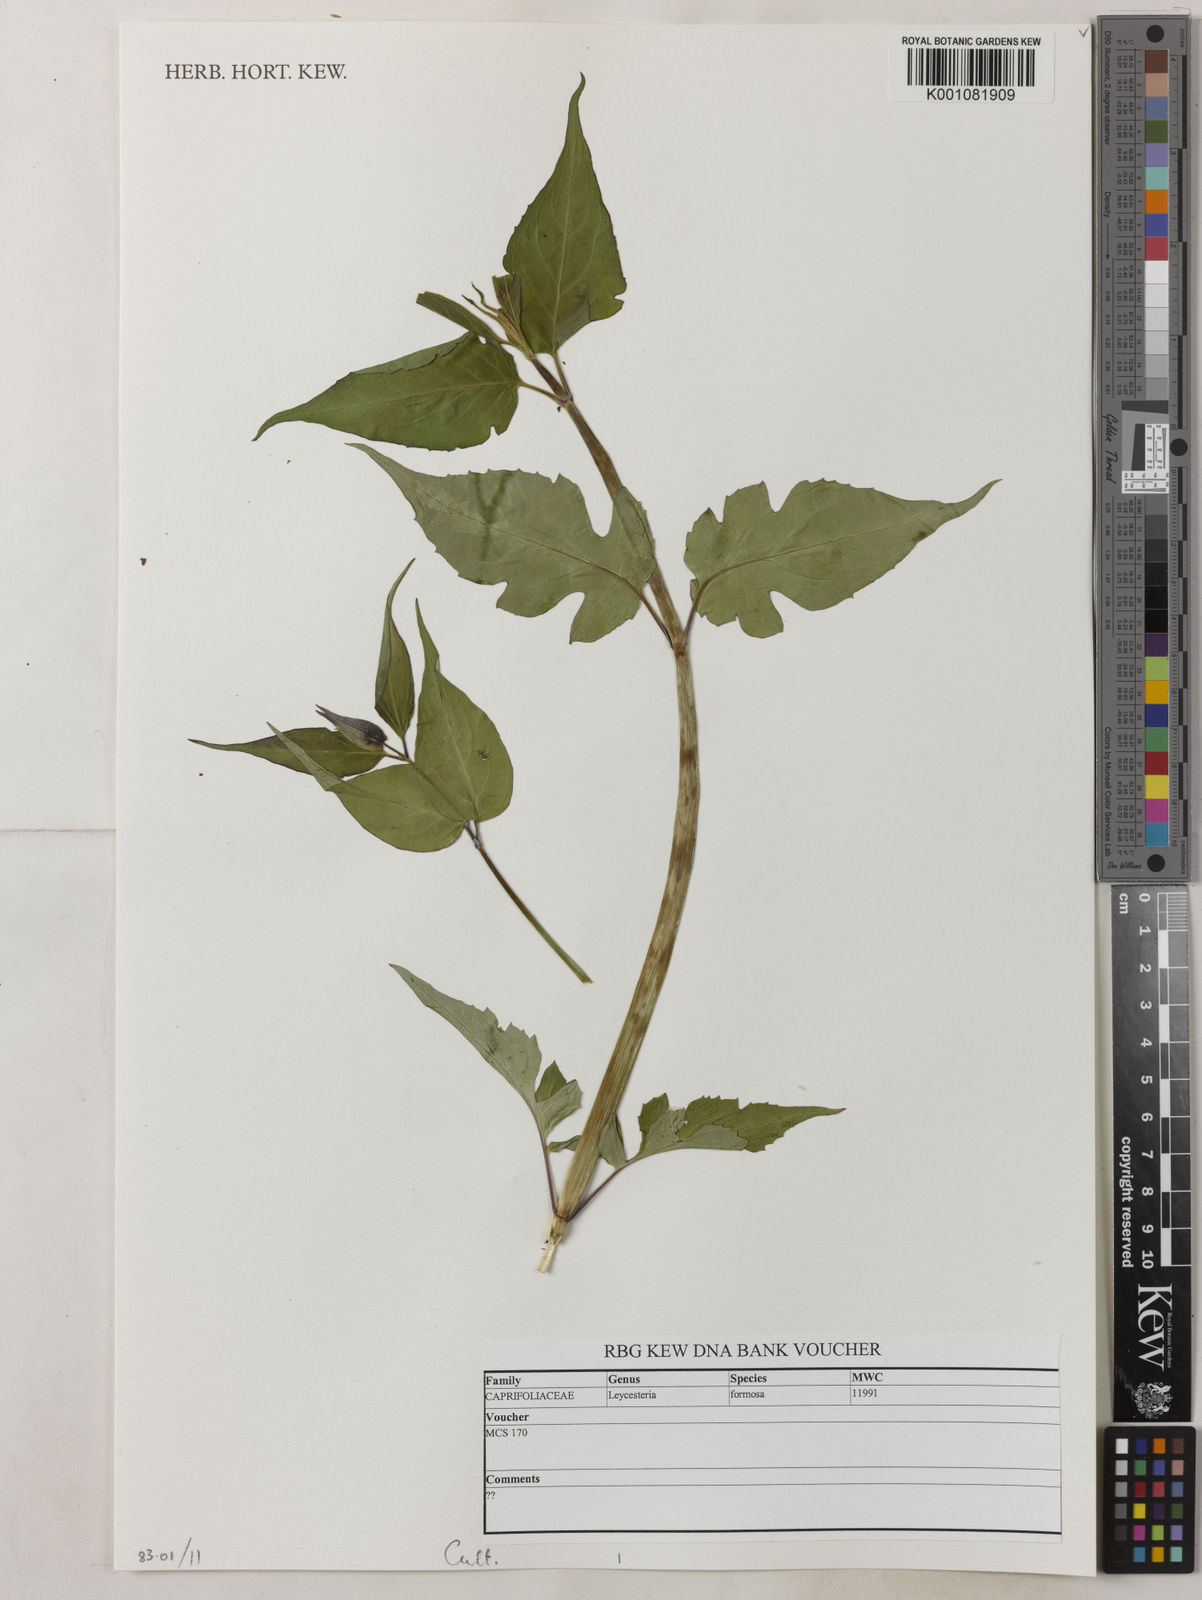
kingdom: Plantae
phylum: Tracheophyta
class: Magnoliopsida
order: Dipsacales
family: Caprifoliaceae
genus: Leycesteria
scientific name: Leycesteria formosa
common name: Himalayan honeysuckle
